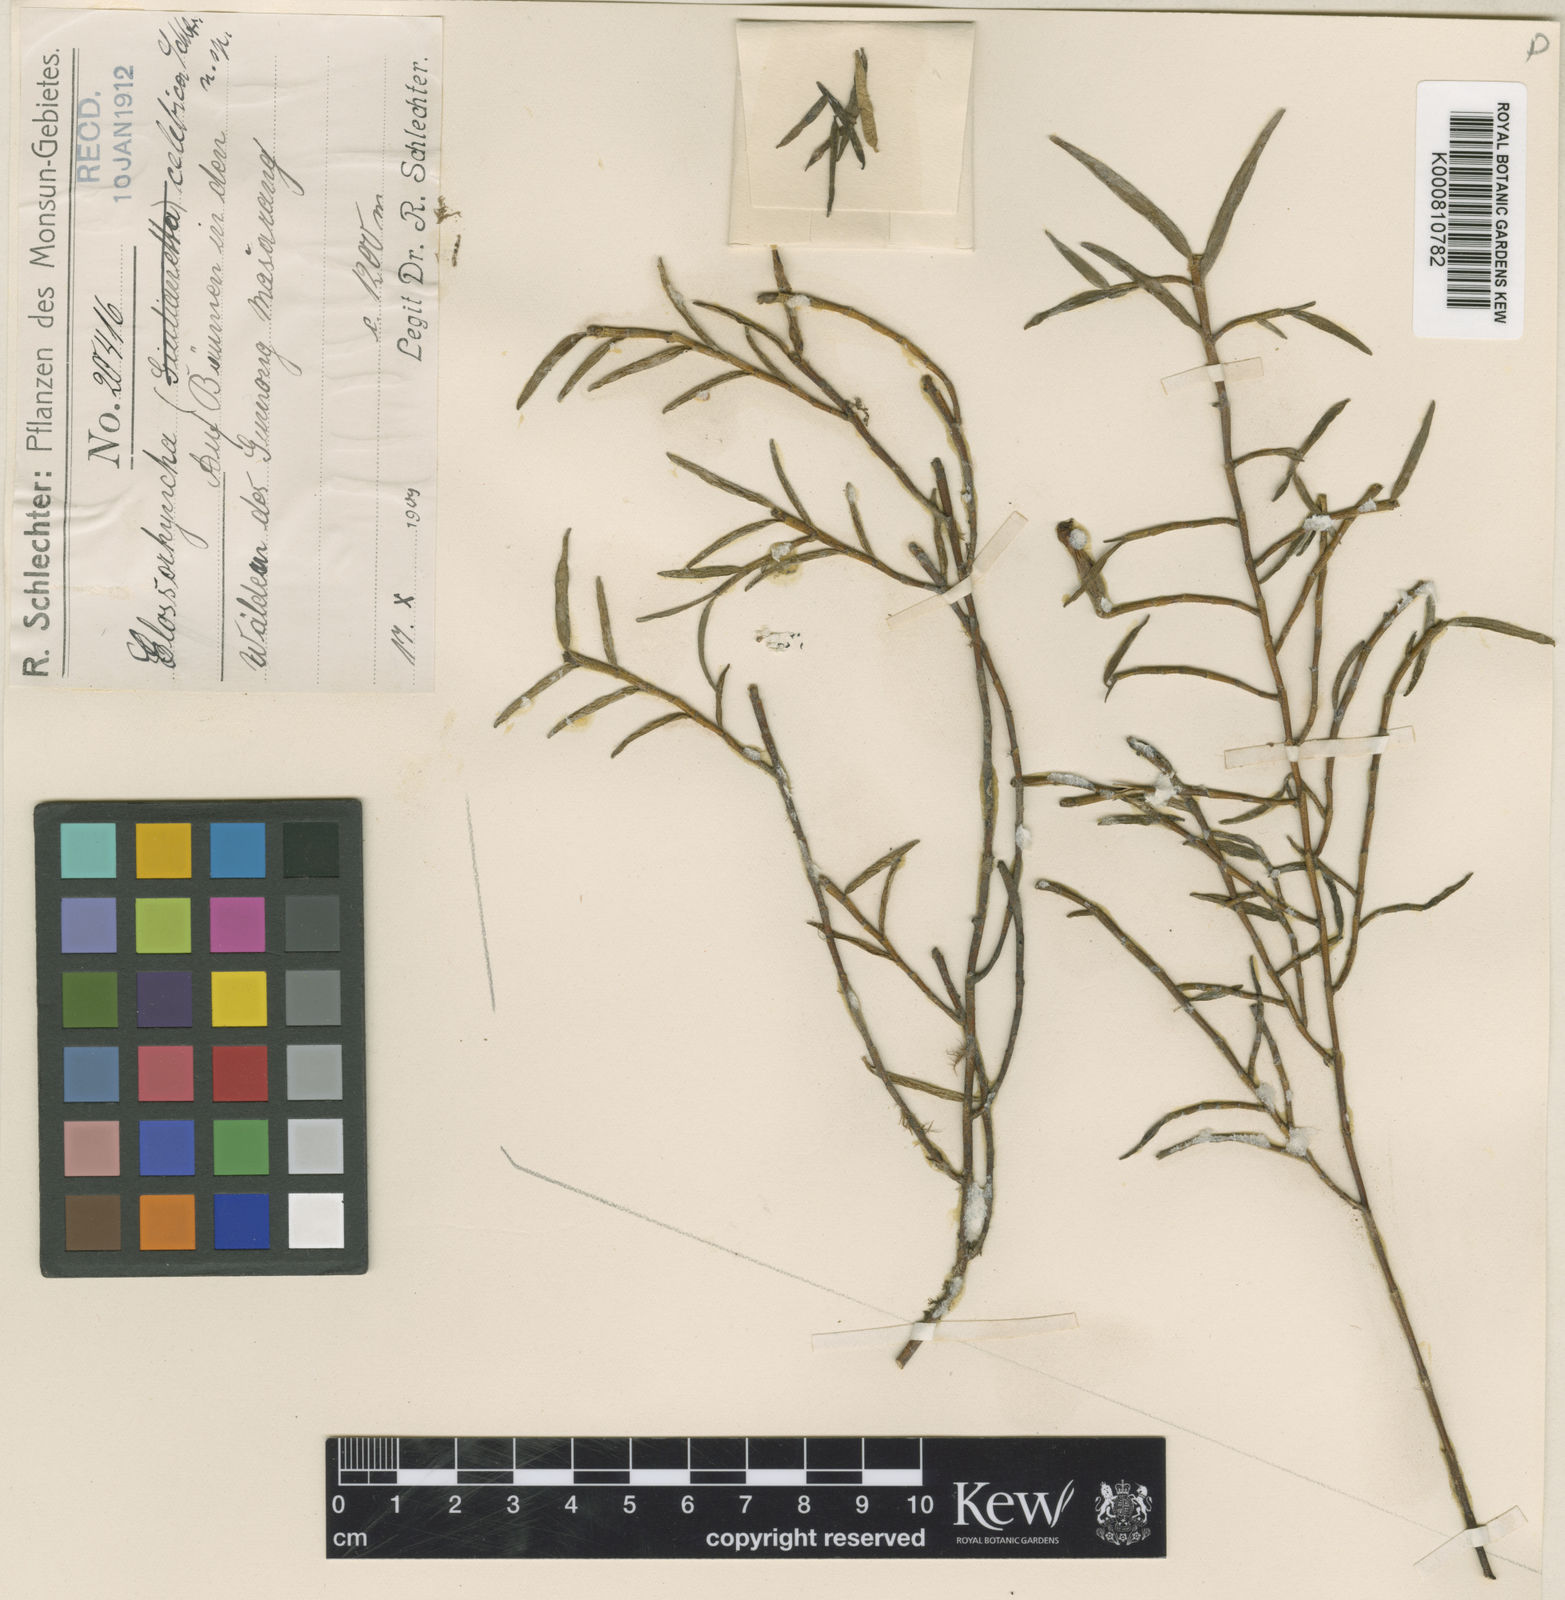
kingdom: Plantae
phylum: Tracheophyta
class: Liliopsida
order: Asparagales
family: Orchidaceae
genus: Glomera
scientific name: Glomera celebica
